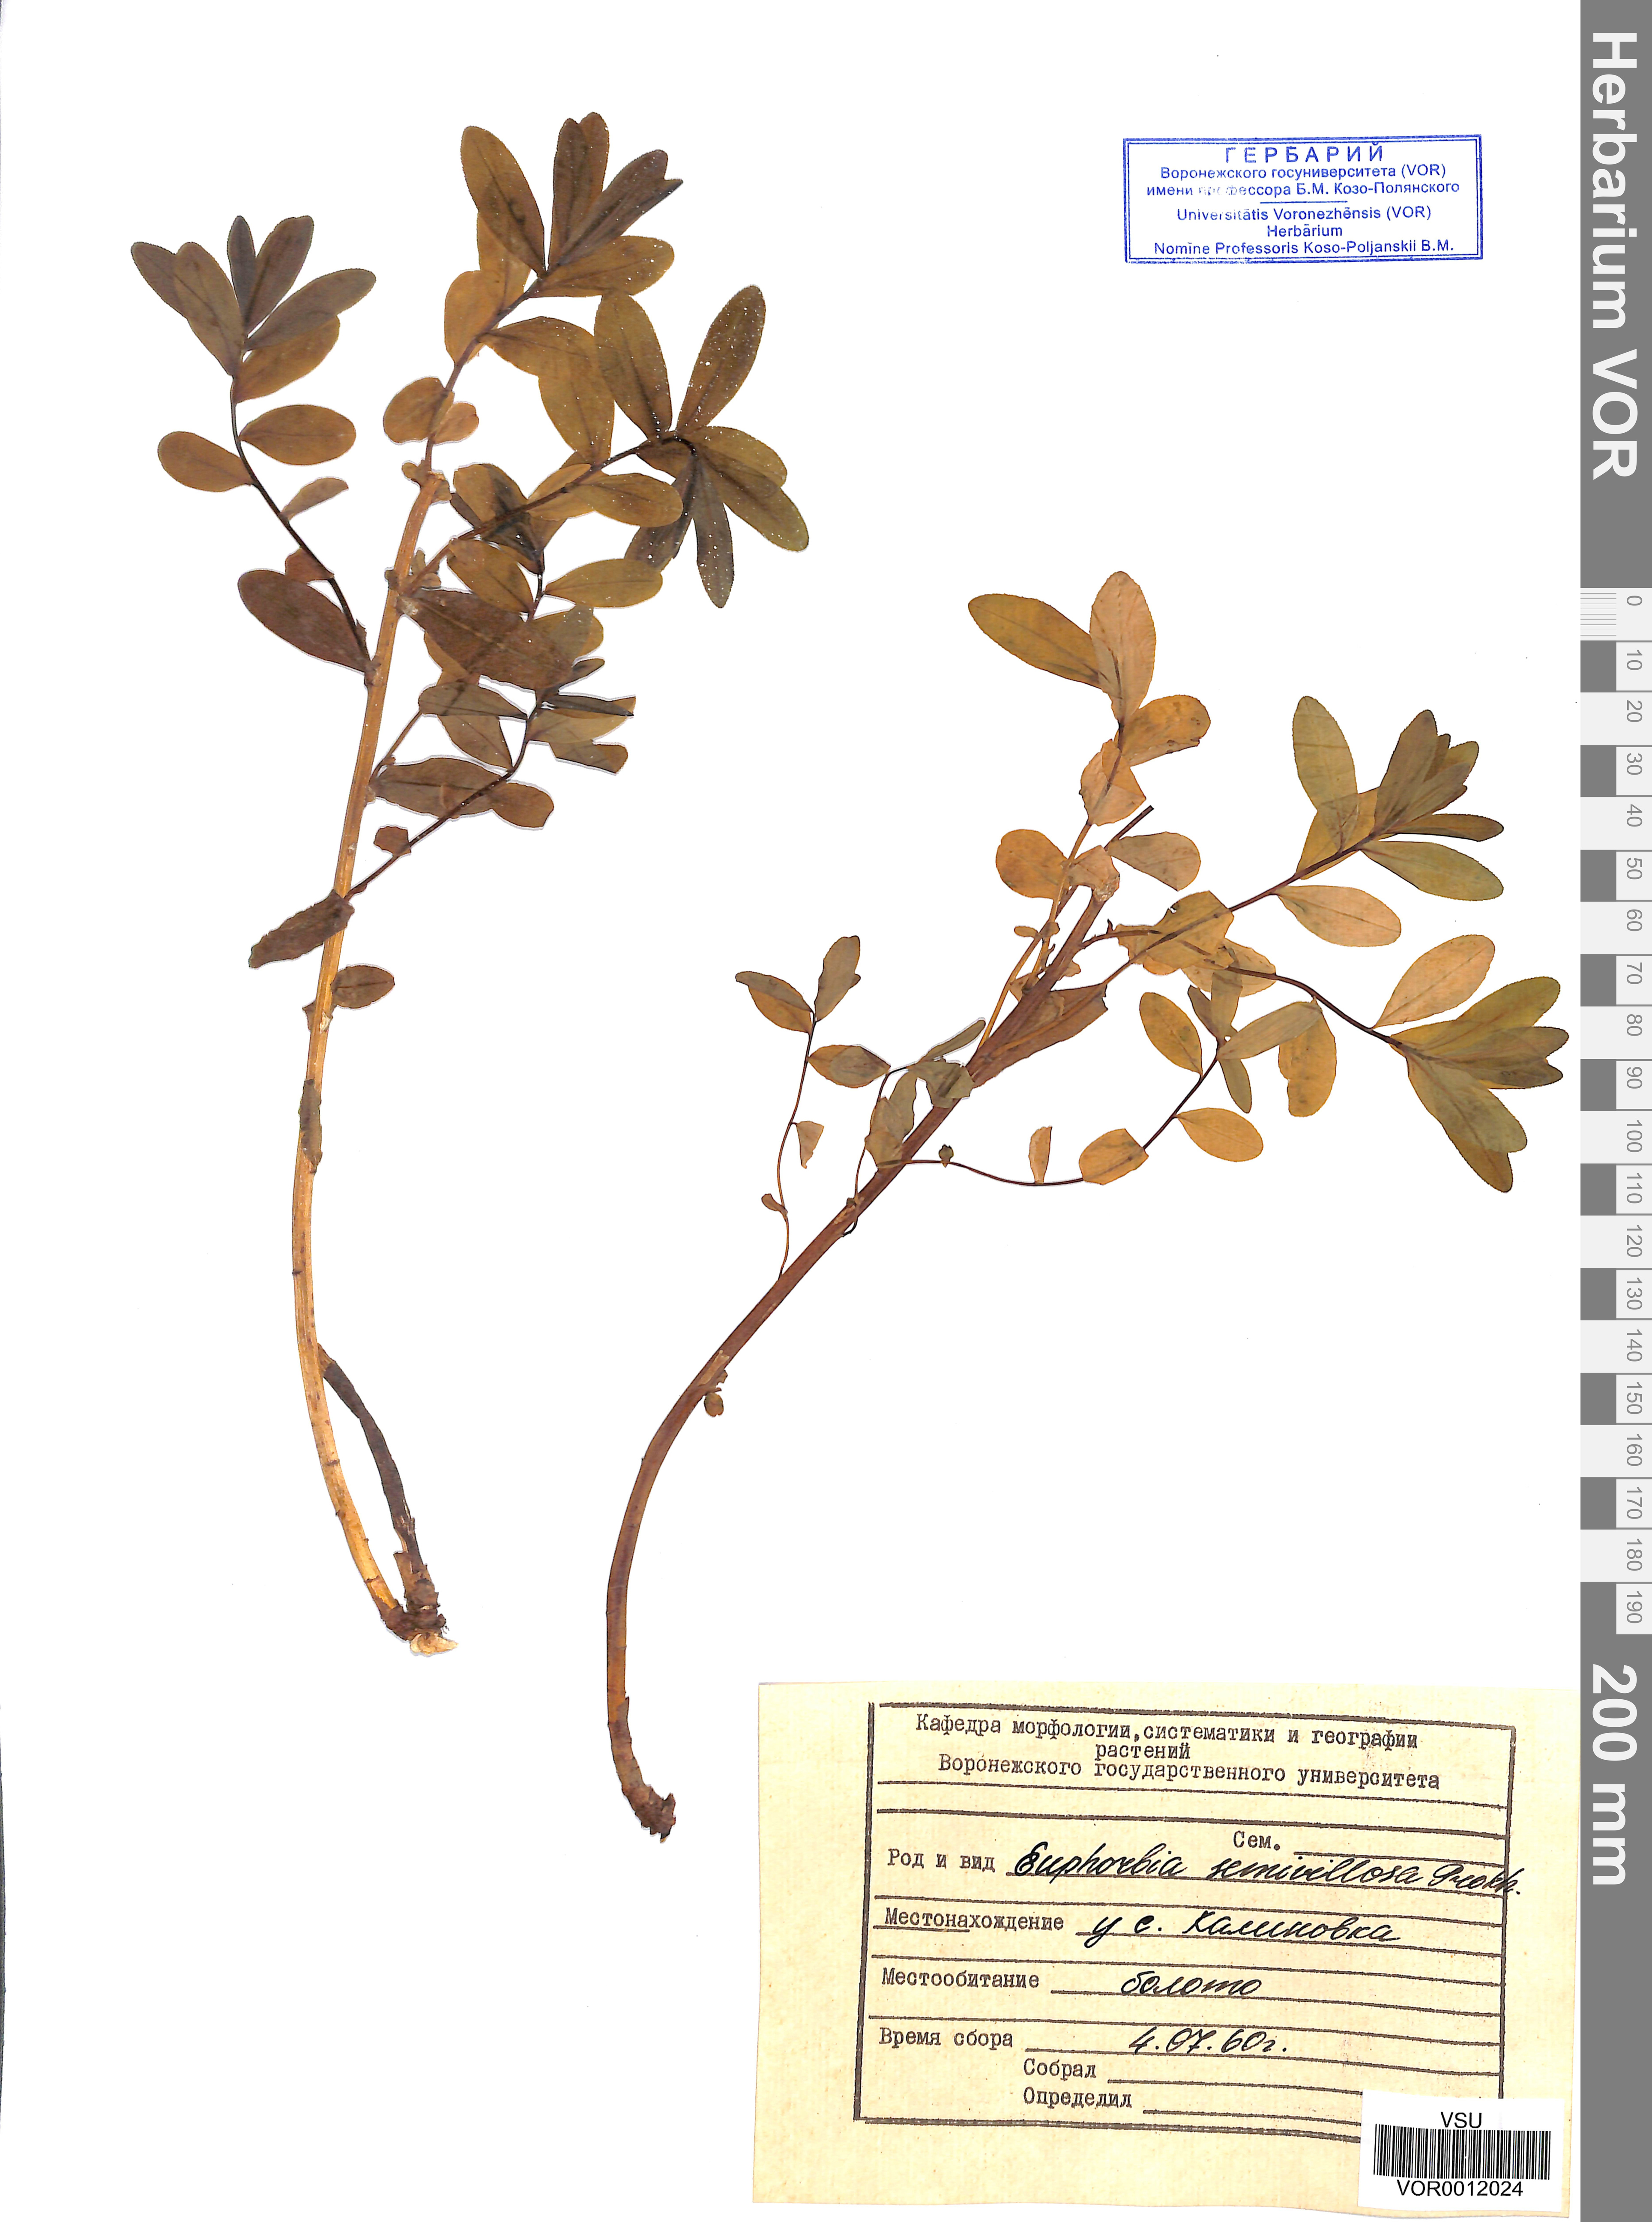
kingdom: Plantae
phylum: Tracheophyta
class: Magnoliopsida
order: Malpighiales
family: Euphorbiaceae
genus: Euphorbia
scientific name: Euphorbia semivillosa
